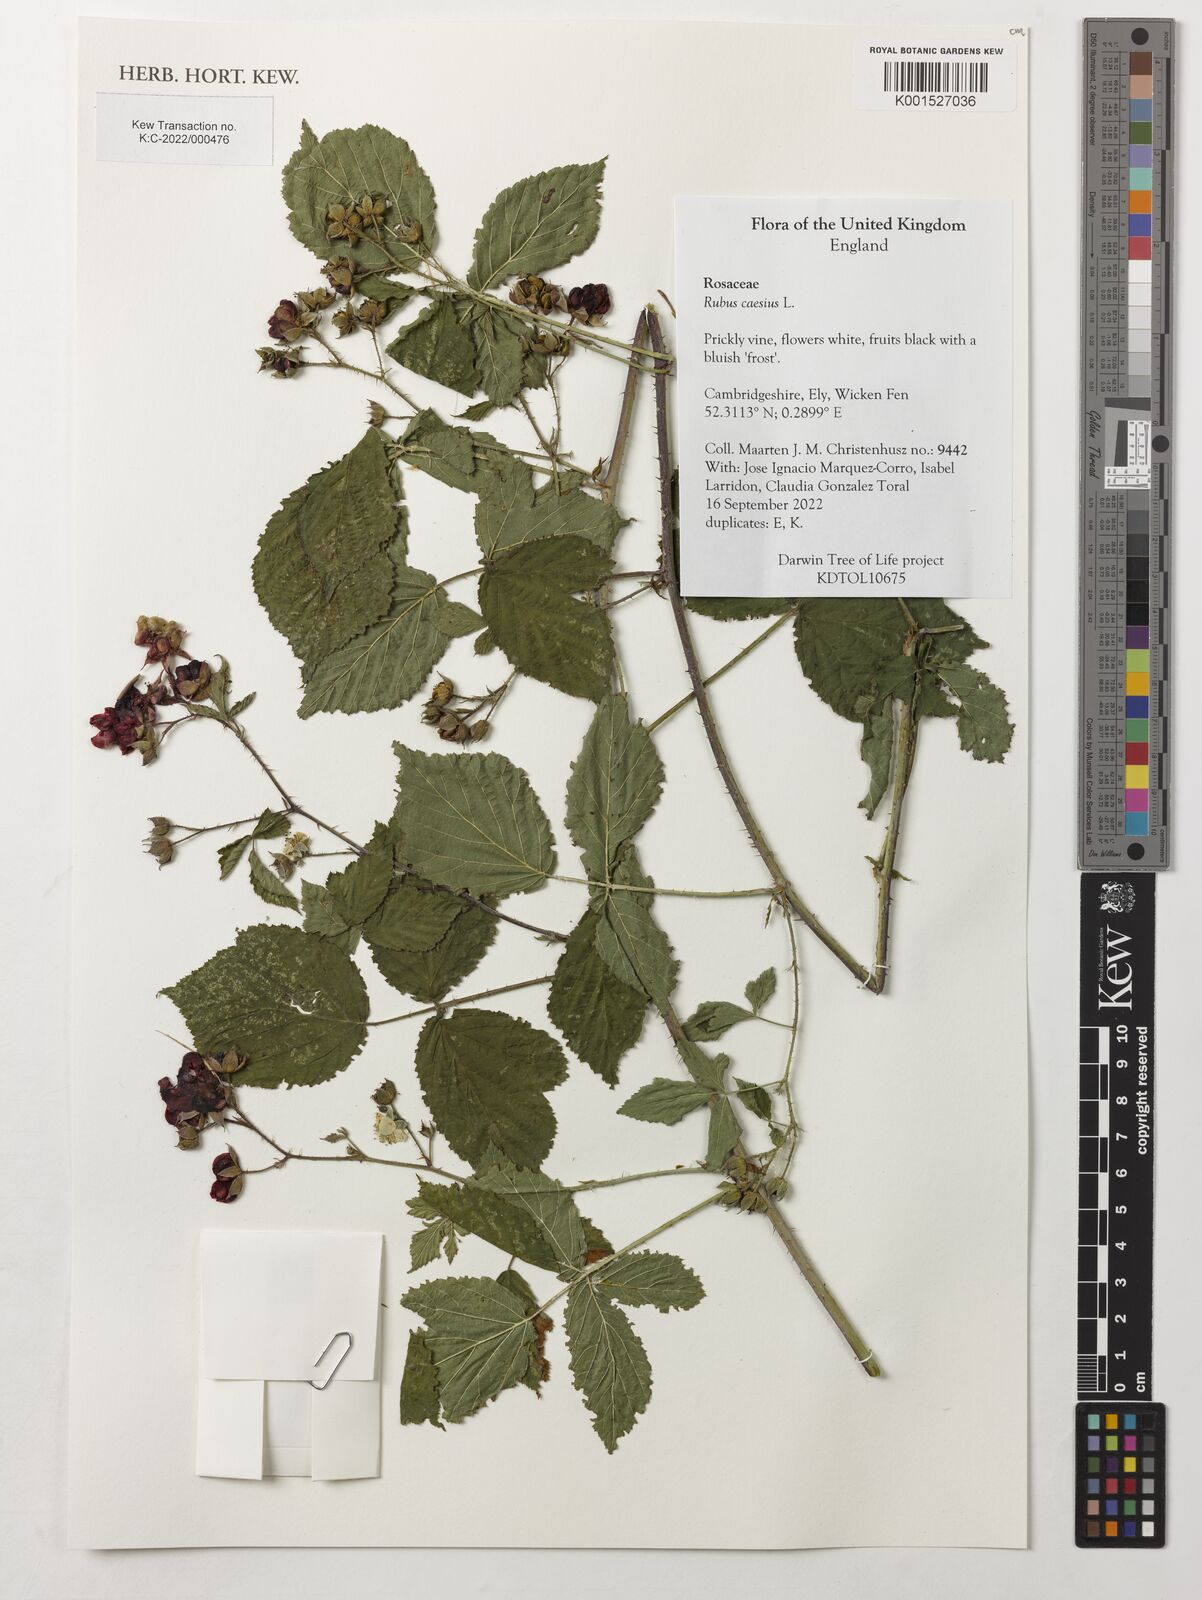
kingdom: Plantae
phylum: Tracheophyta
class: Magnoliopsida
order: Rosales
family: Rosaceae
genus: Rubus
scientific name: Rubus caesius
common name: Dewberry
